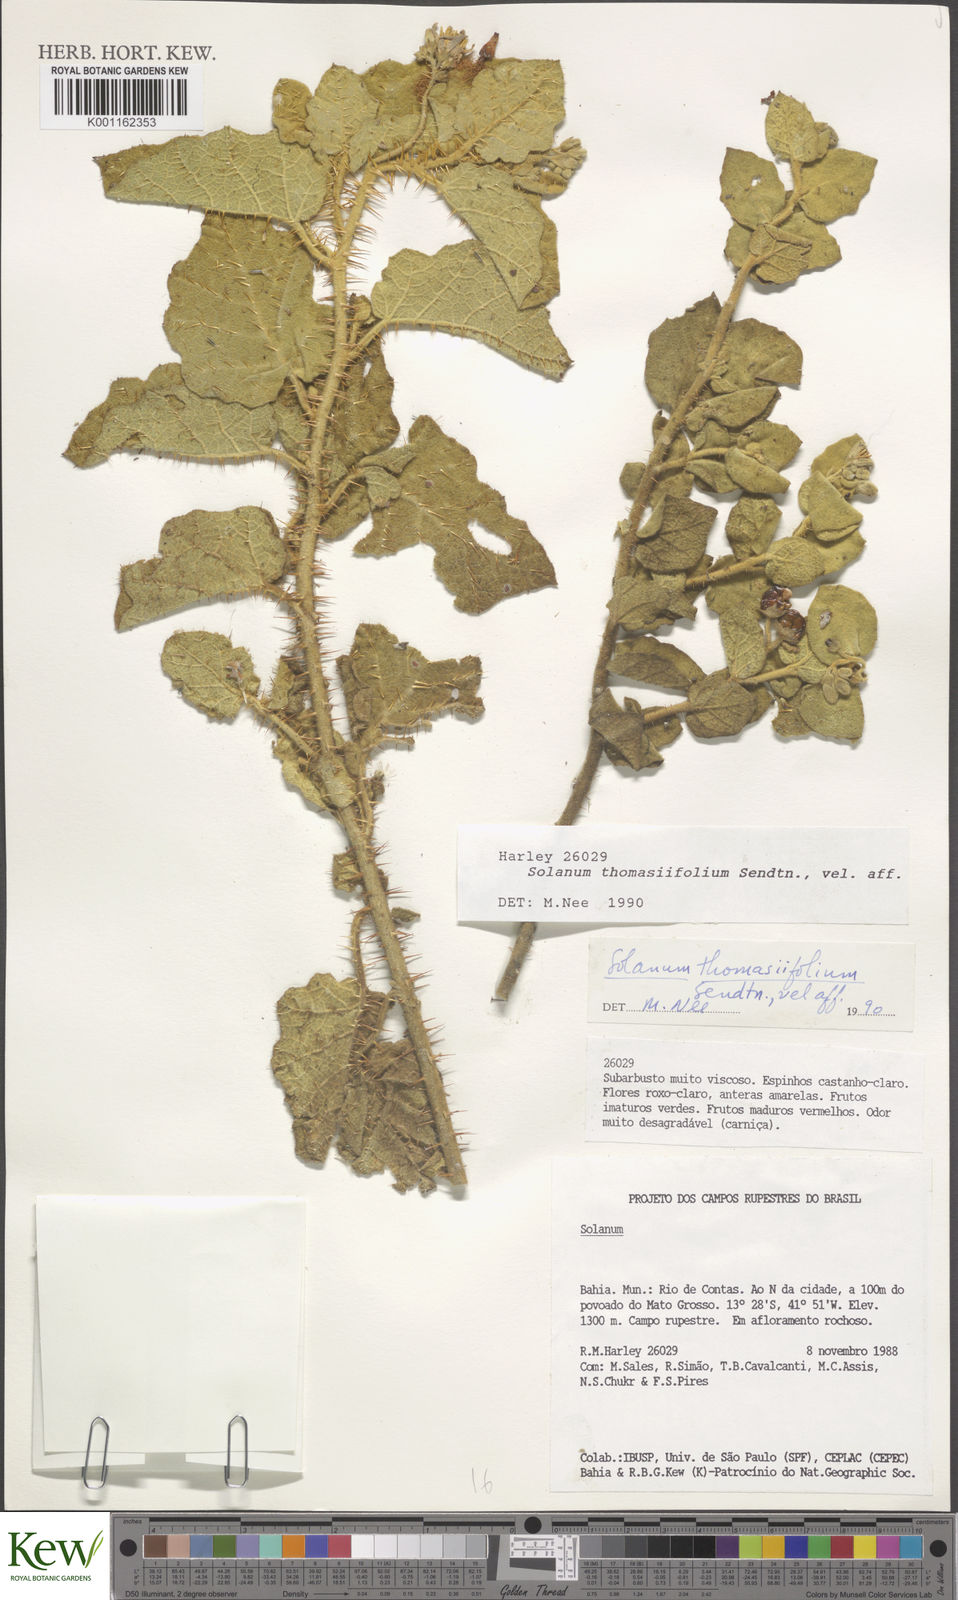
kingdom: Plantae
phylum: Tracheophyta
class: Magnoliopsida
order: Solanales
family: Solanaceae
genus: Solanum
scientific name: Solanum thomasiifolium
